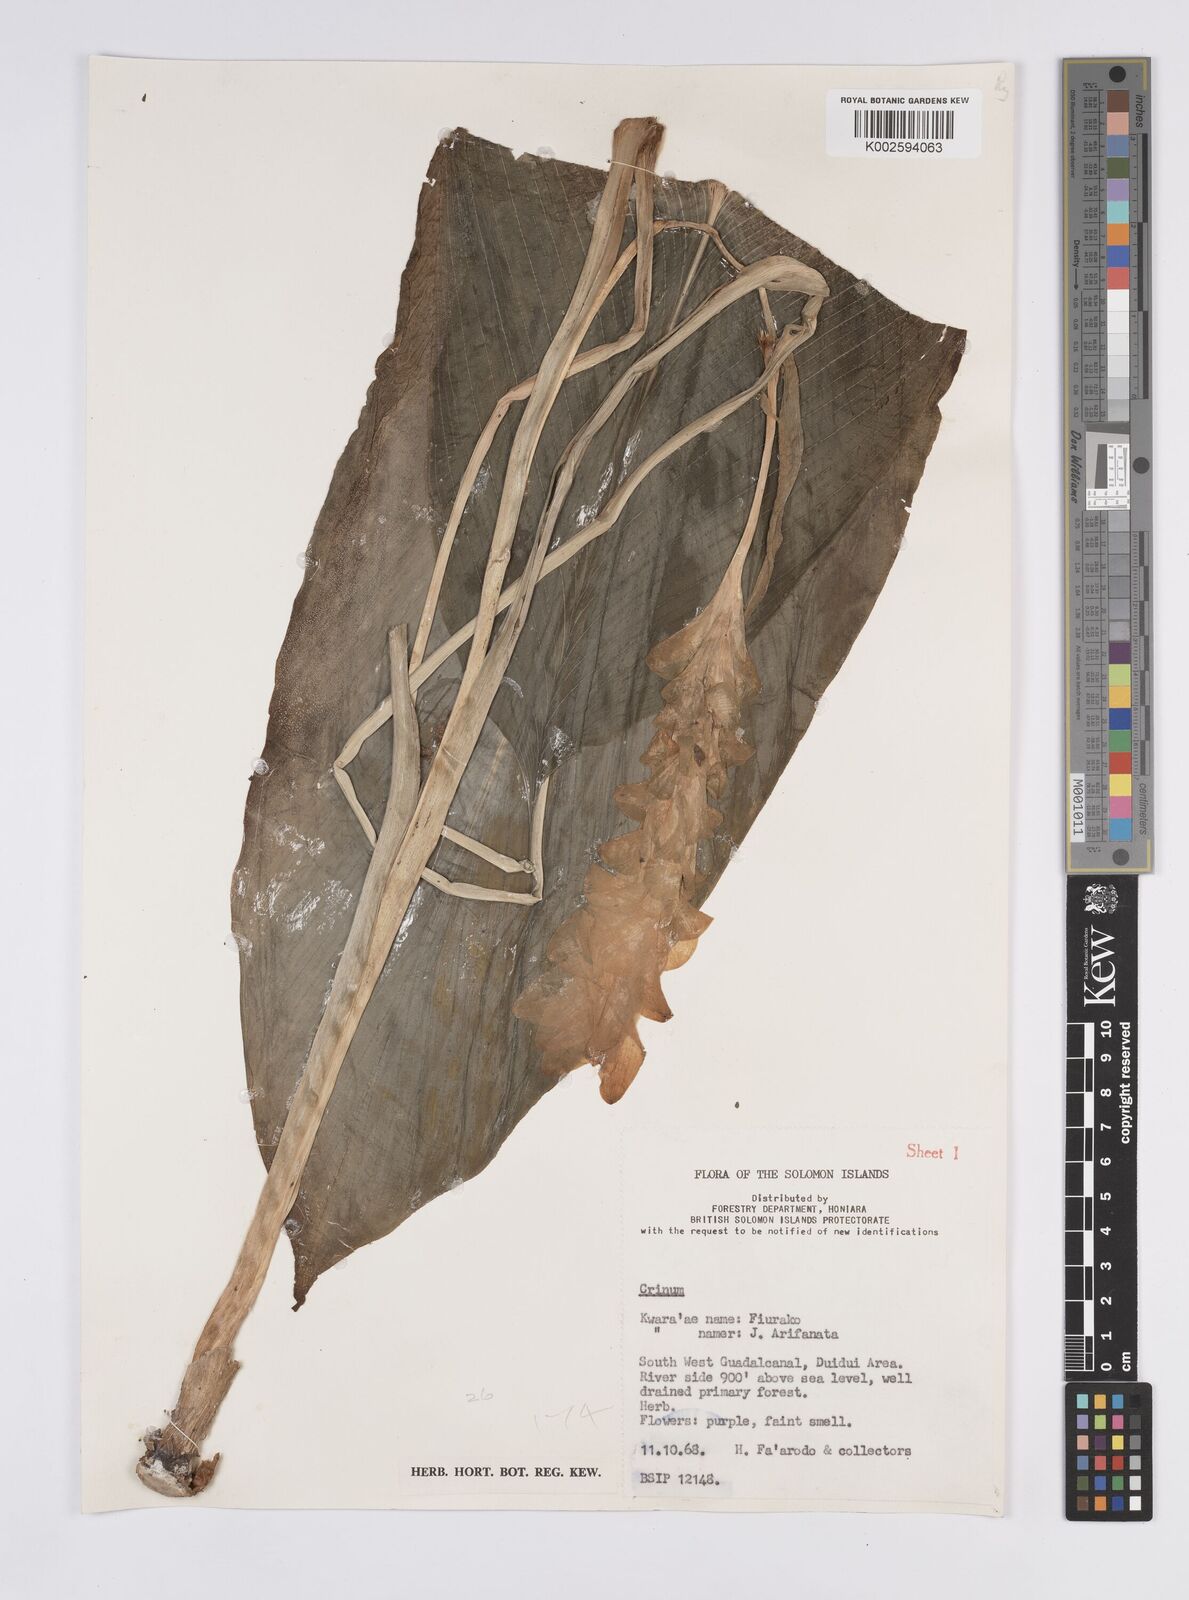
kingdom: Plantae
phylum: Tracheophyta
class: Liliopsida
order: Zingiberales
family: Zingiberaceae
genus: Curcuma
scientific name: Curcuma
